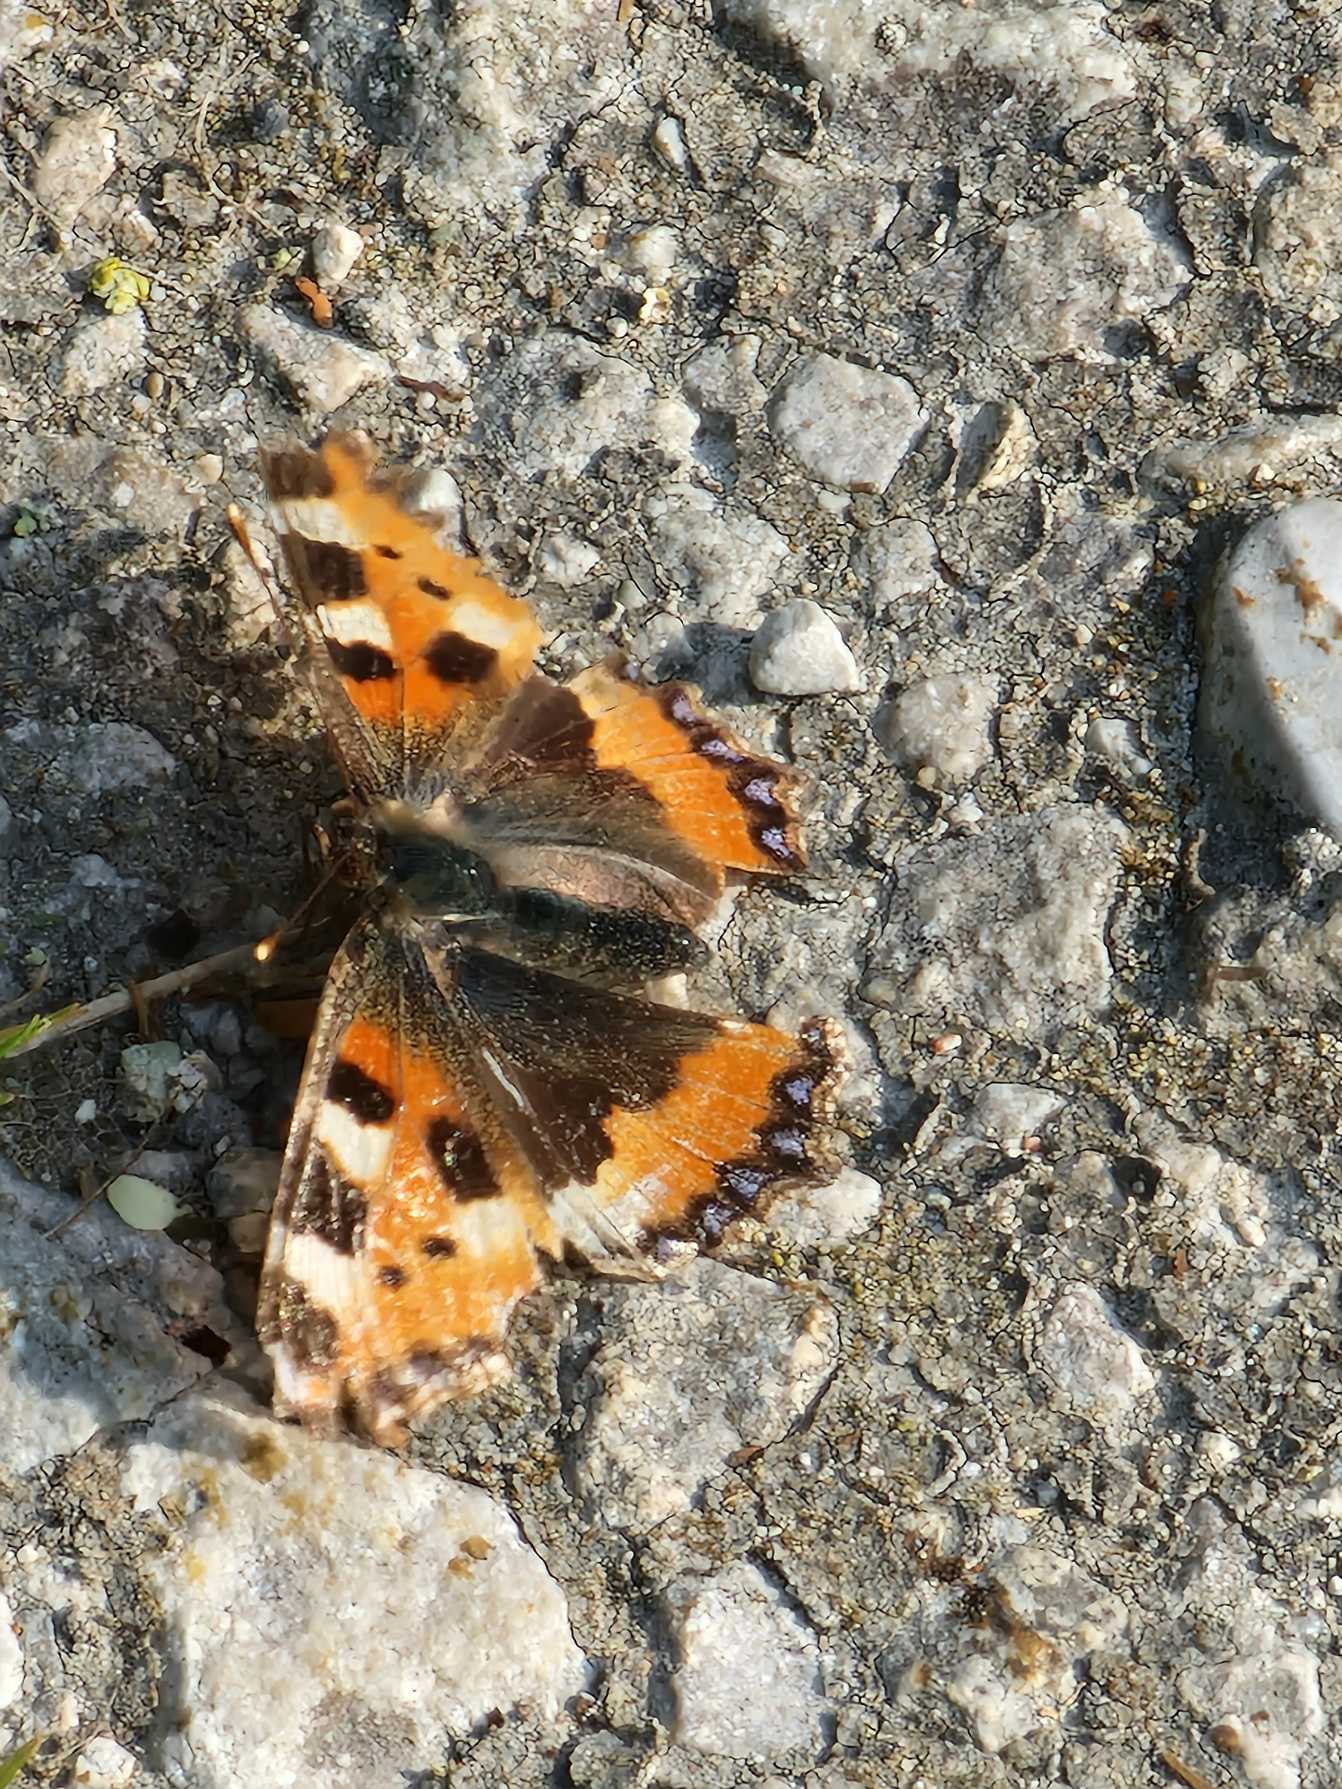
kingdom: Animalia
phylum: Arthropoda
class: Insecta
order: Lepidoptera
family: Nymphalidae
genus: Aglais
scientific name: Aglais urticae
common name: Nældens takvinge
